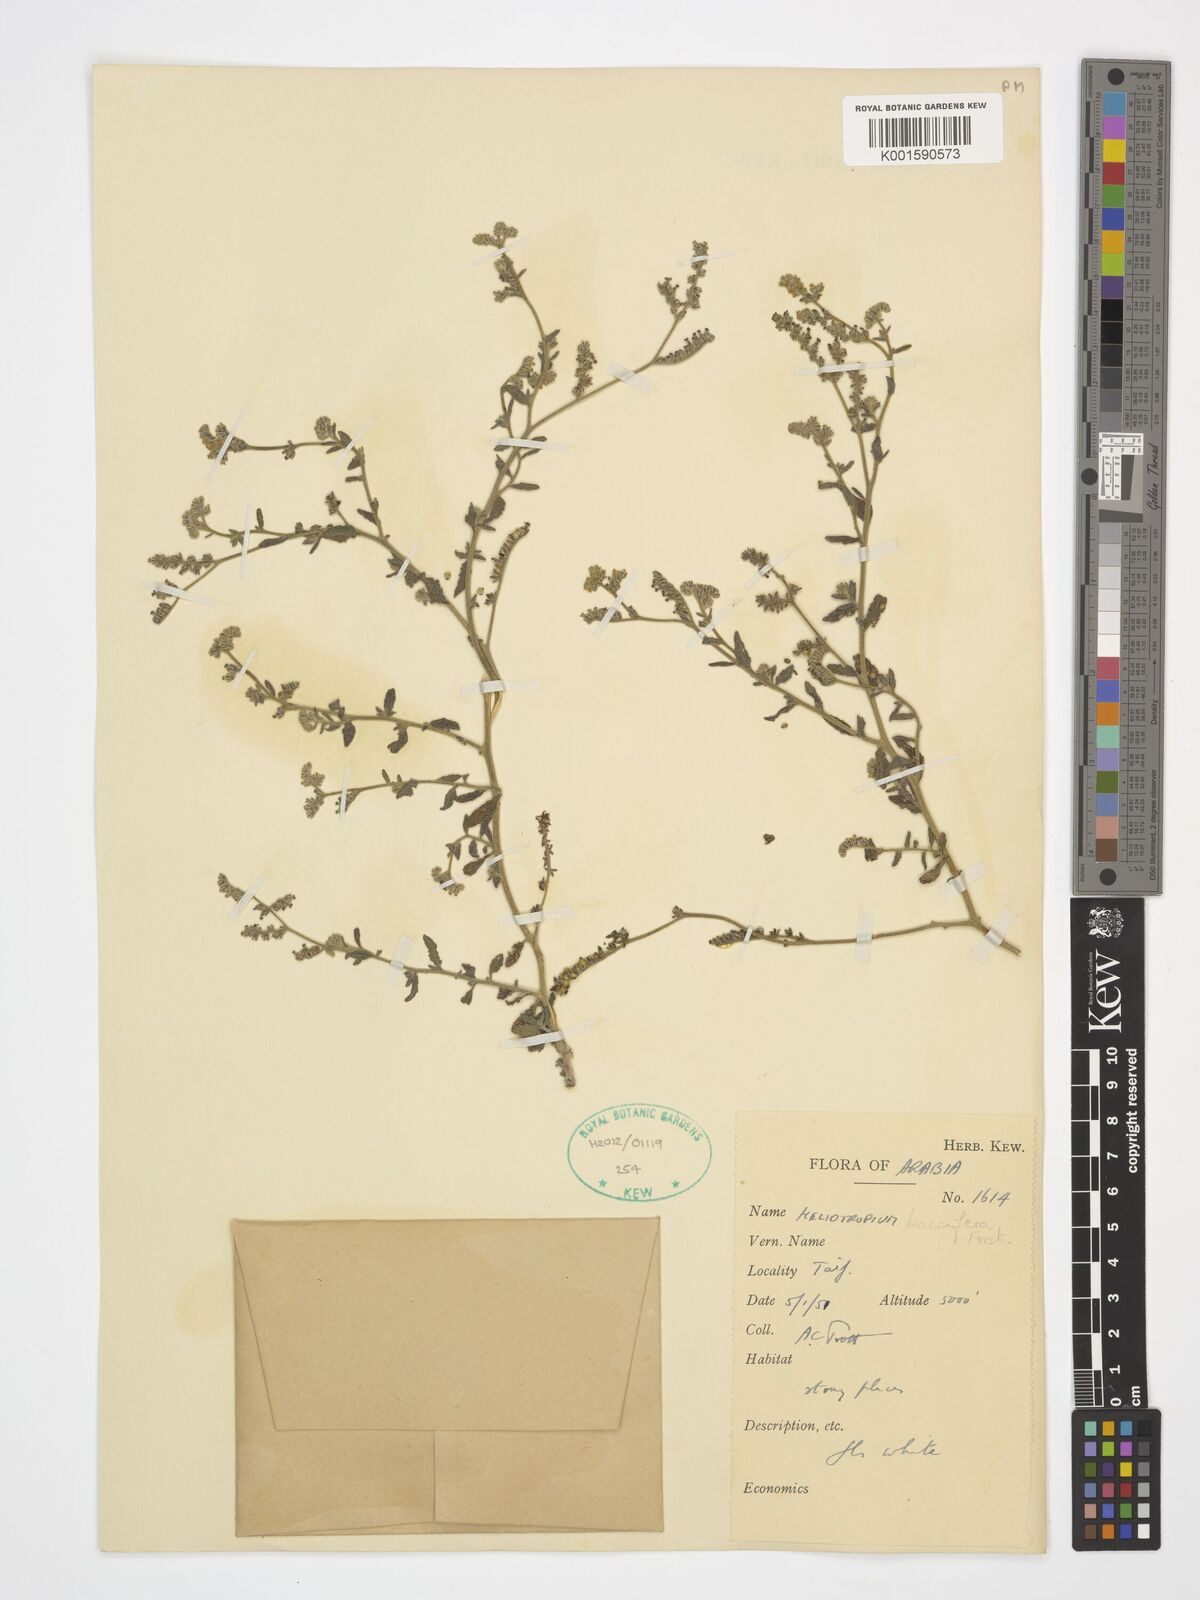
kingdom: Plantae
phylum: Tracheophyta
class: Magnoliopsida
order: Boraginales
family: Heliotropiaceae
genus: Heliotropium
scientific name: Heliotropium bacciferum
